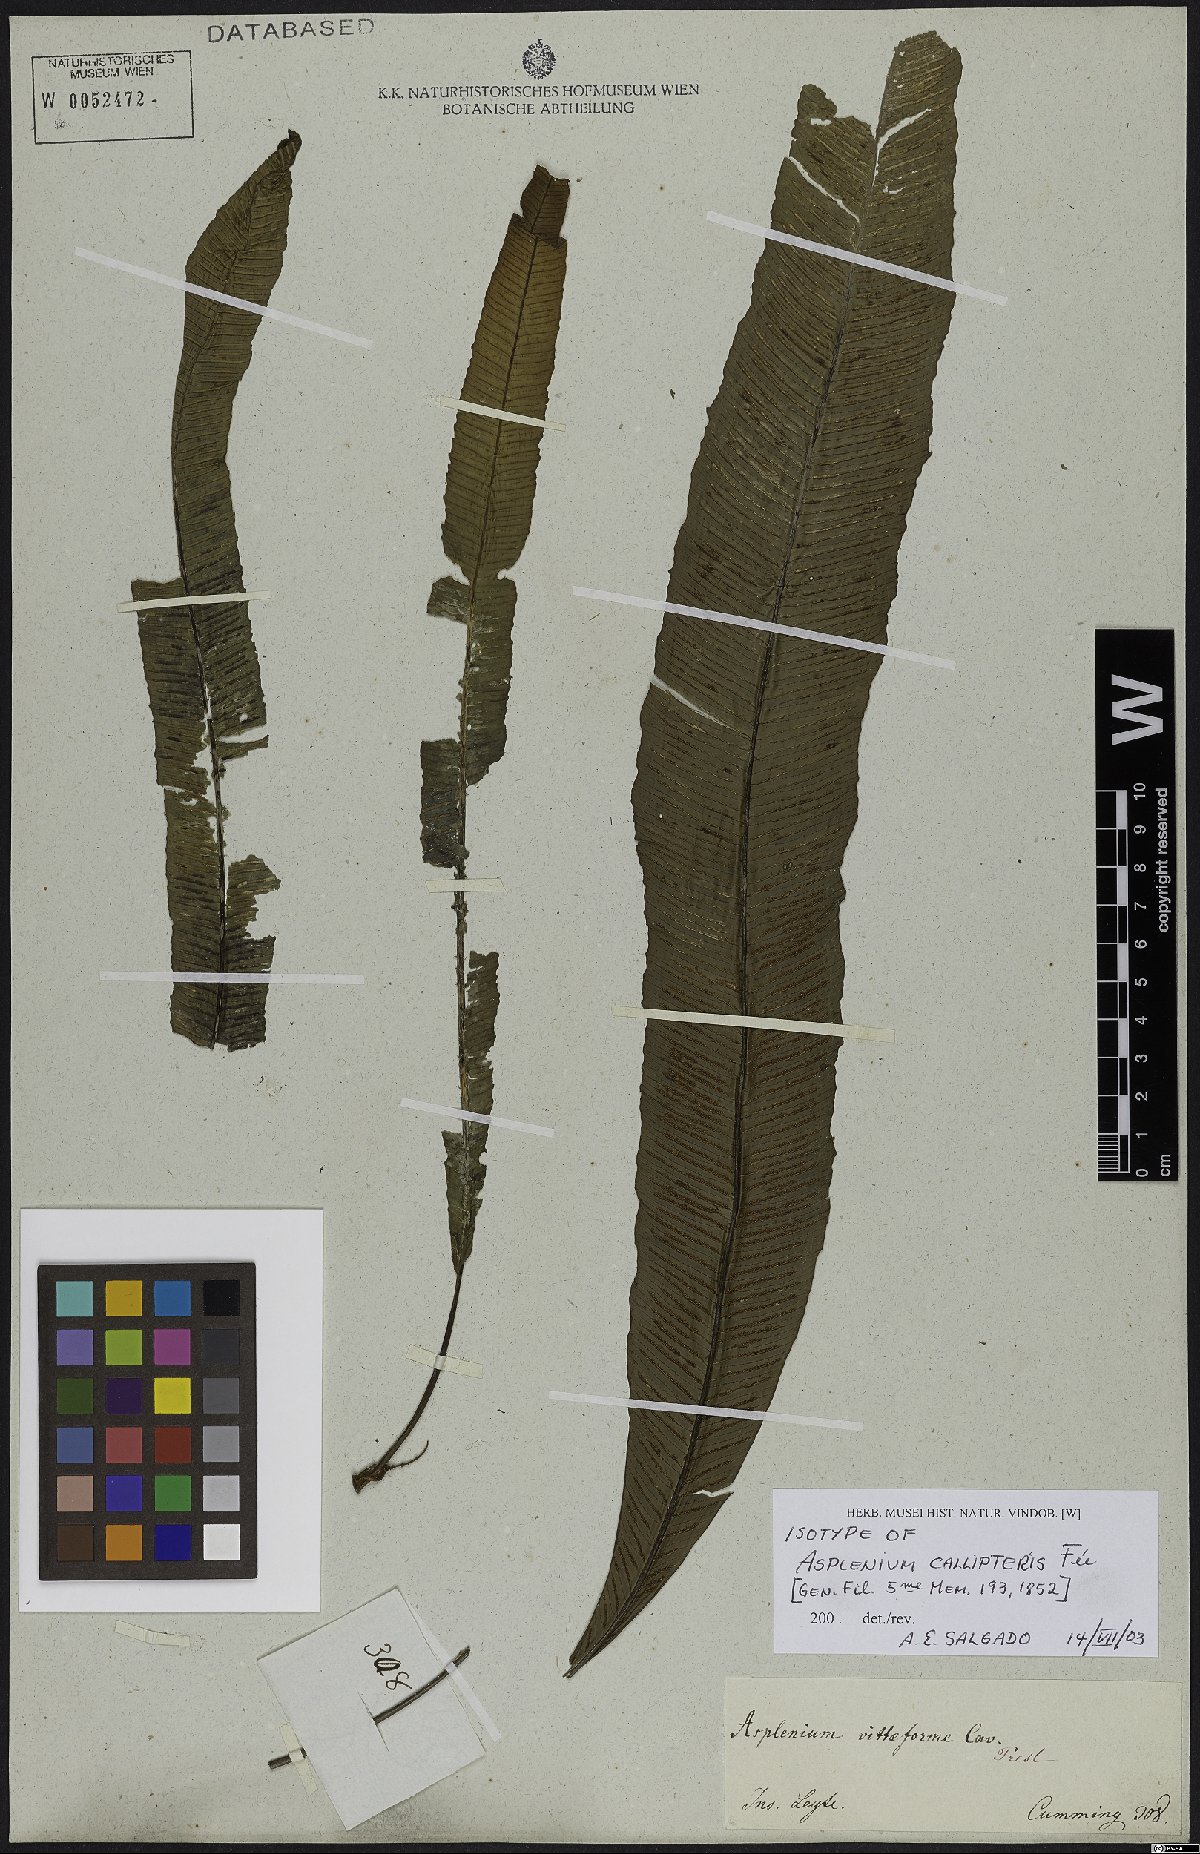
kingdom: Plantae
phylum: Tracheophyta
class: Polypodiopsida
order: Polypodiales
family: Aspleniaceae
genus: Asplenium
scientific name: Asplenium callipteris
